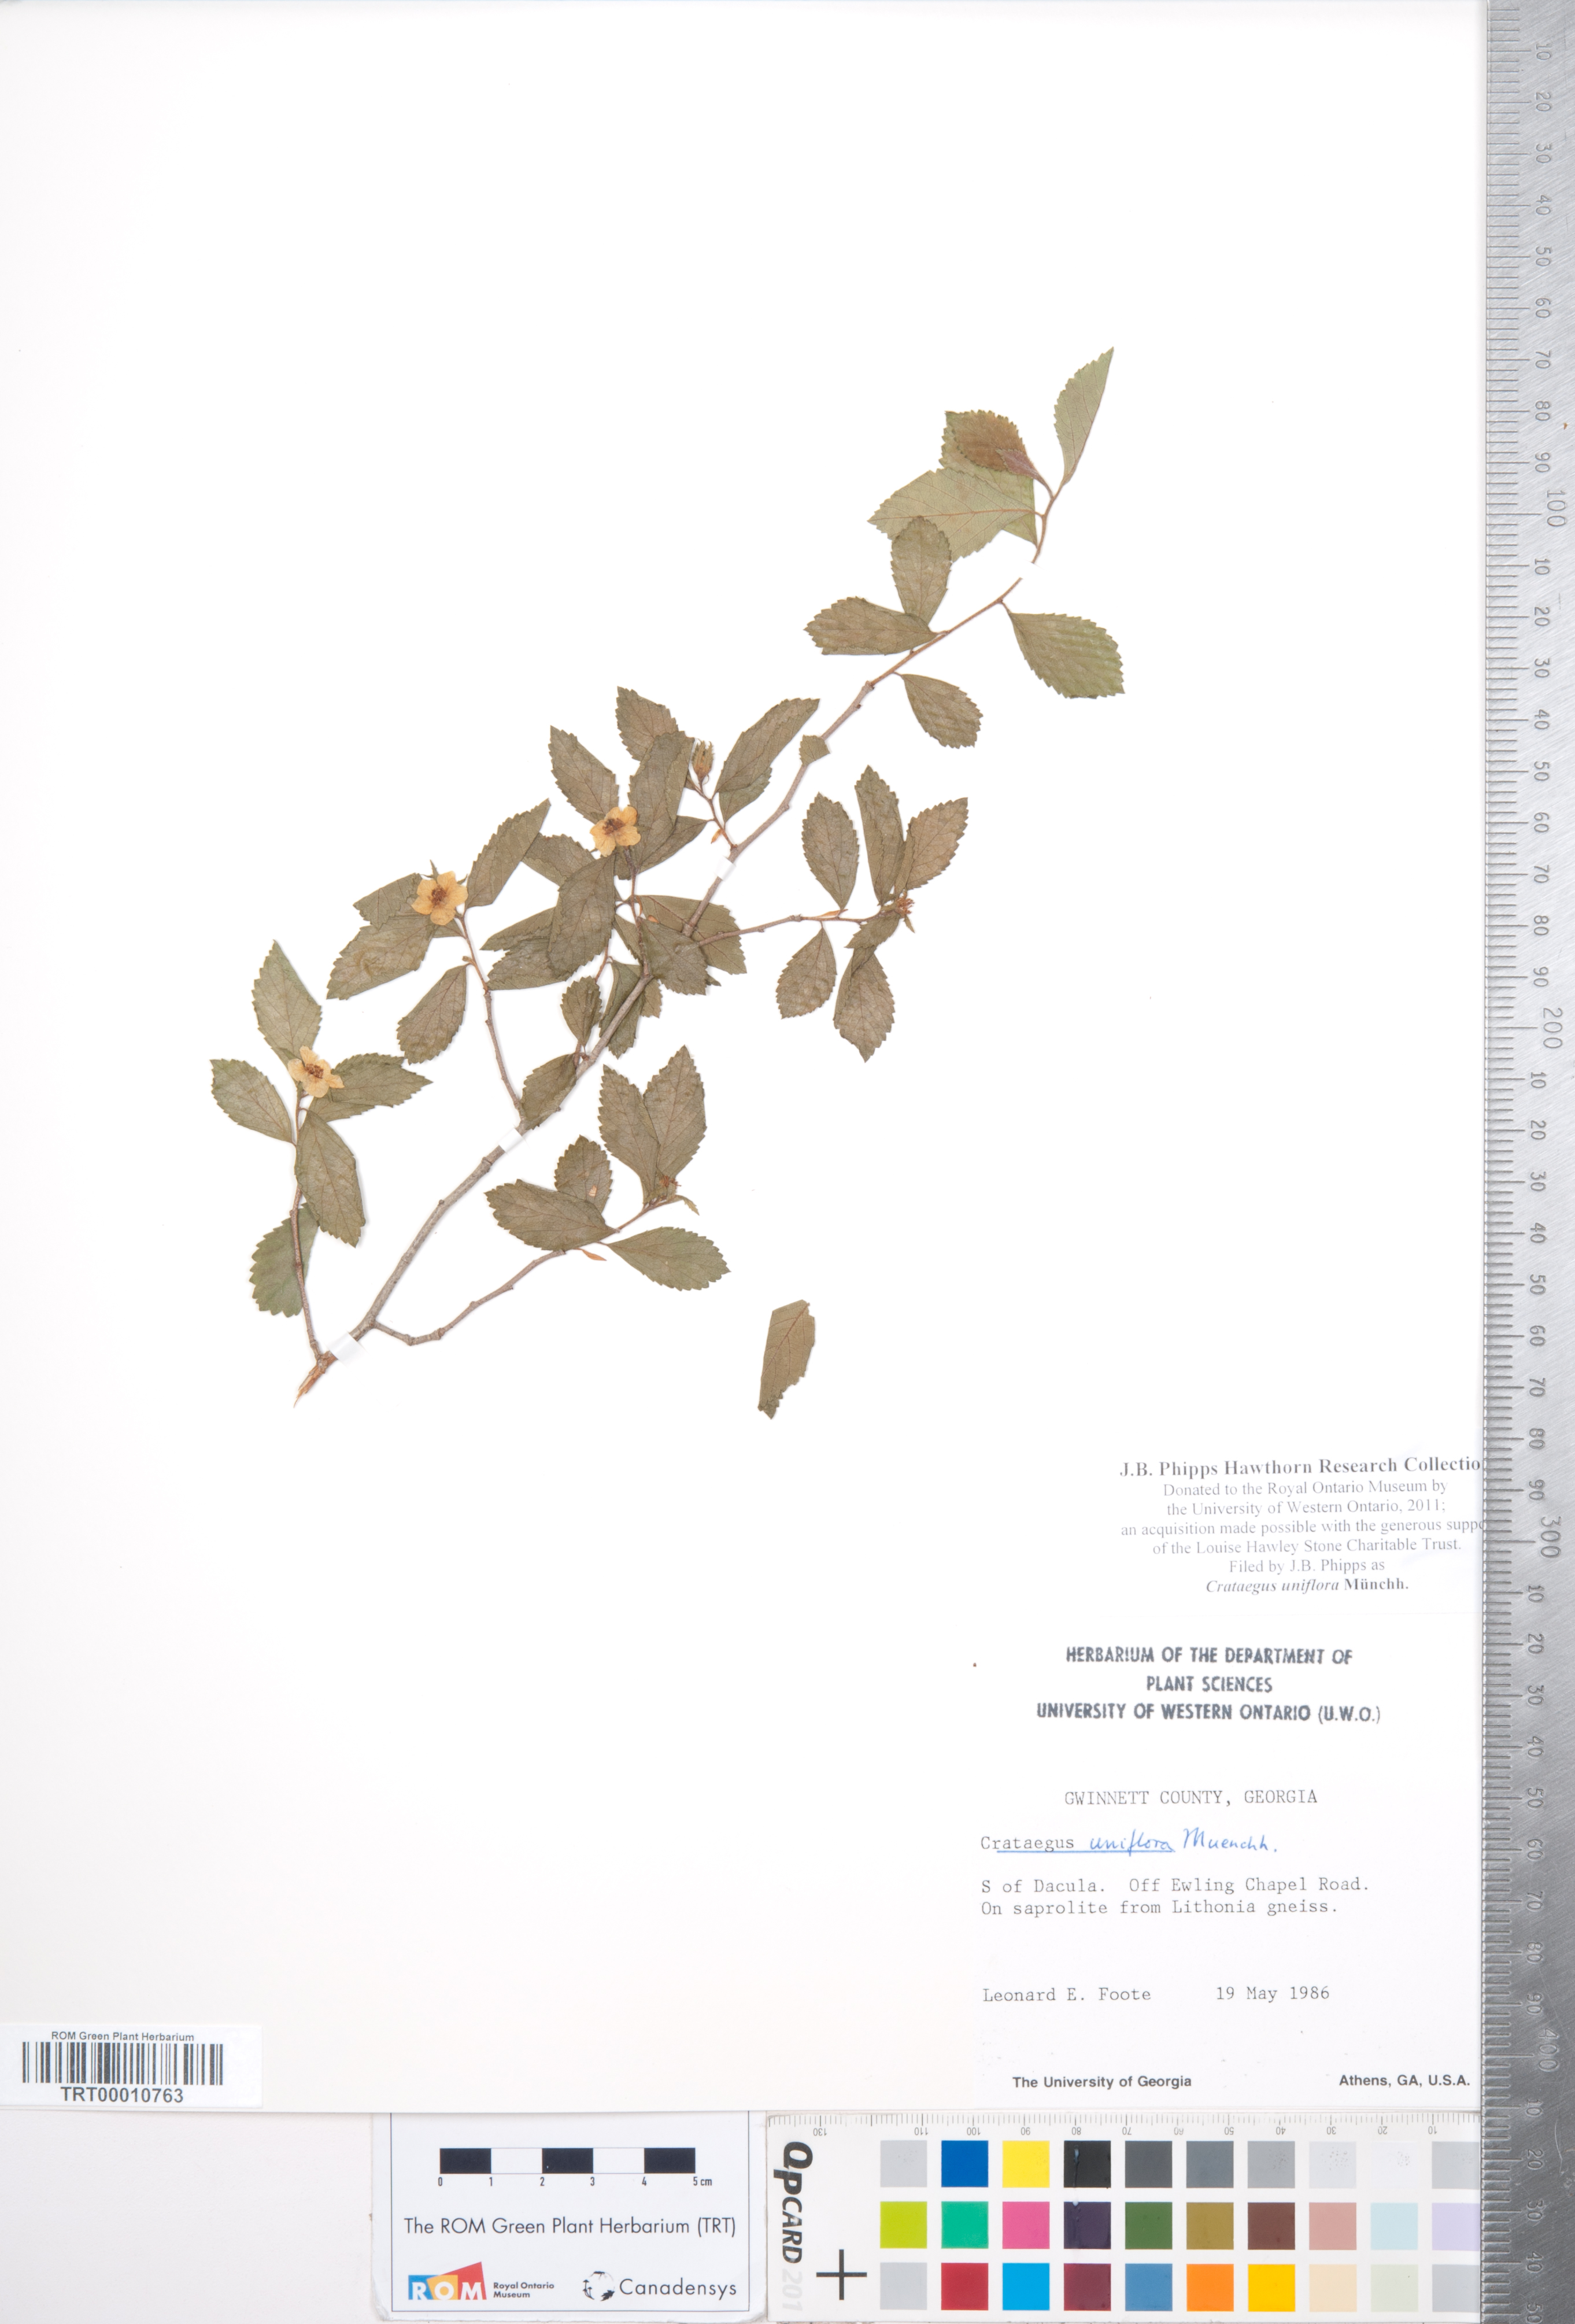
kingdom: Plantae
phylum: Tracheophyta
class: Magnoliopsida
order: Rosales
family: Rosaceae
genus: Crataegus
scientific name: Crataegus uniflora
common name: One-flower hawthorn
